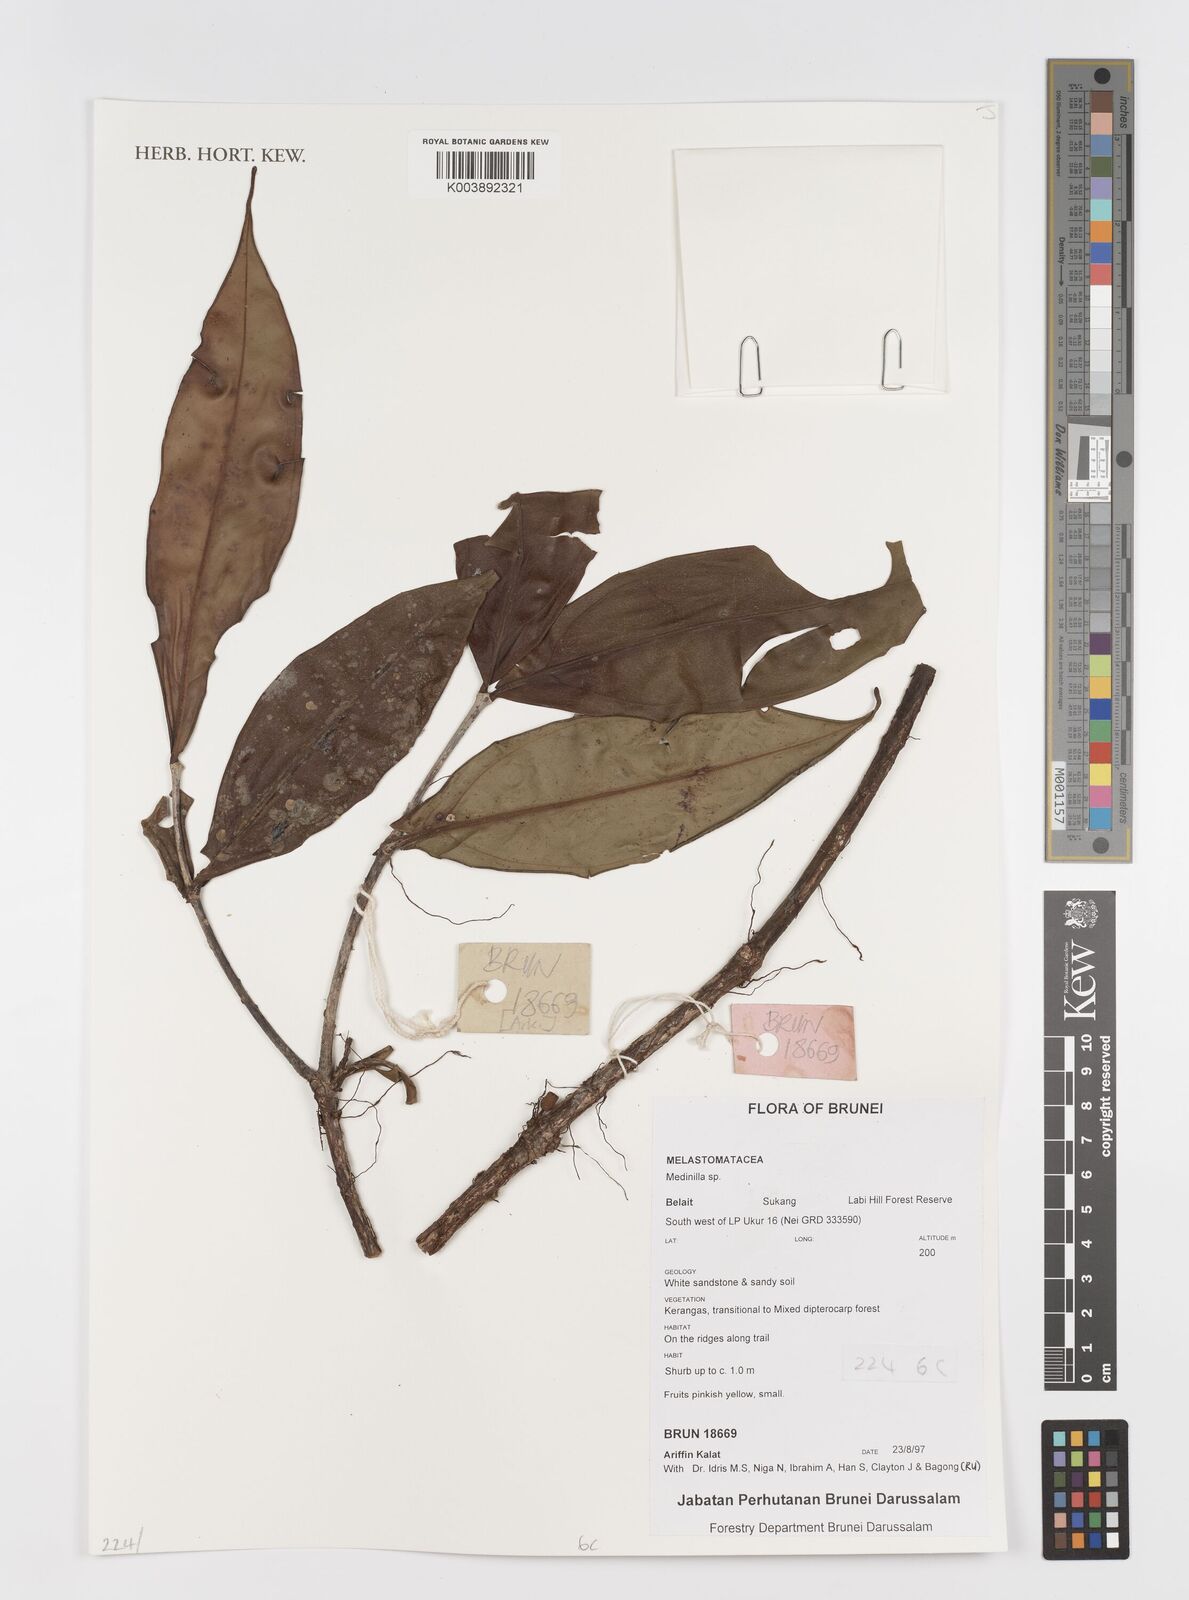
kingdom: Plantae
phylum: Tracheophyta
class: Magnoliopsida
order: Myrtales
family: Melastomataceae
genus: Medinilla
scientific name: Medinilla
